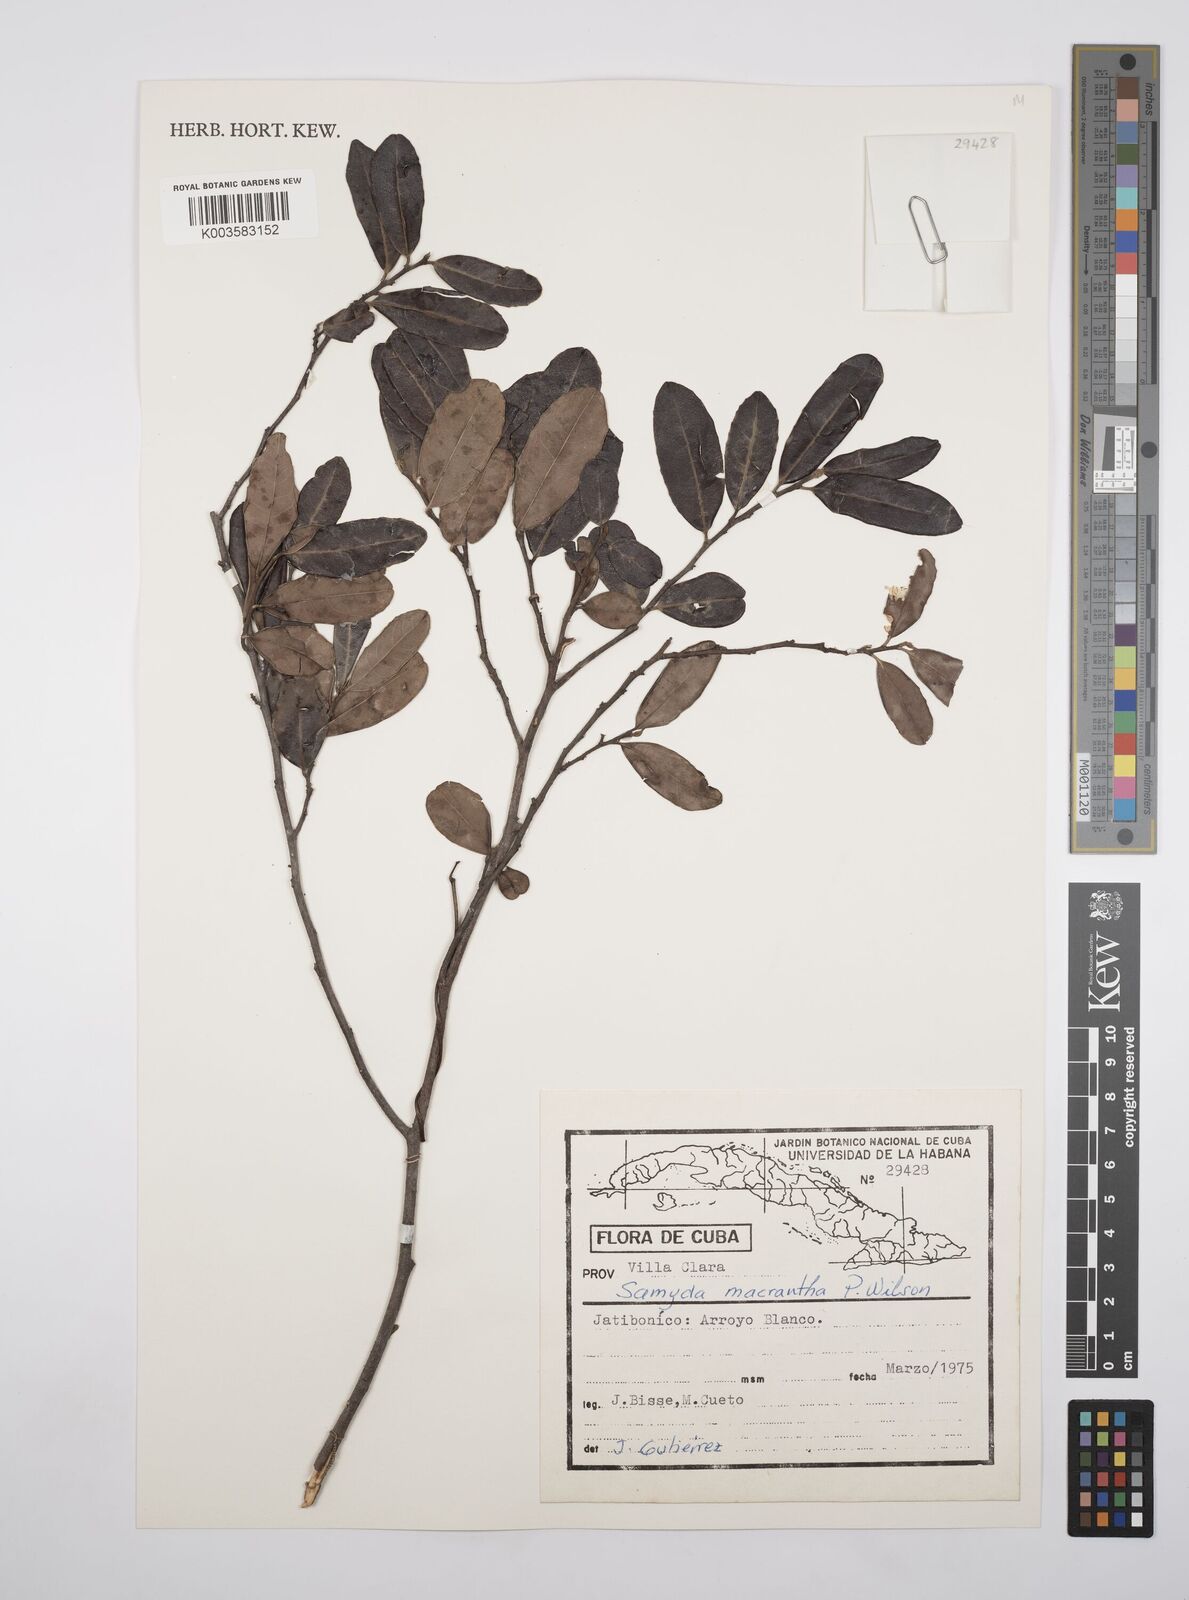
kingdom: Plantae
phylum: Tracheophyta
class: Magnoliopsida
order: Malpighiales
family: Salicaceae
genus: Casearia
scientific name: Casearia dolichanthera
